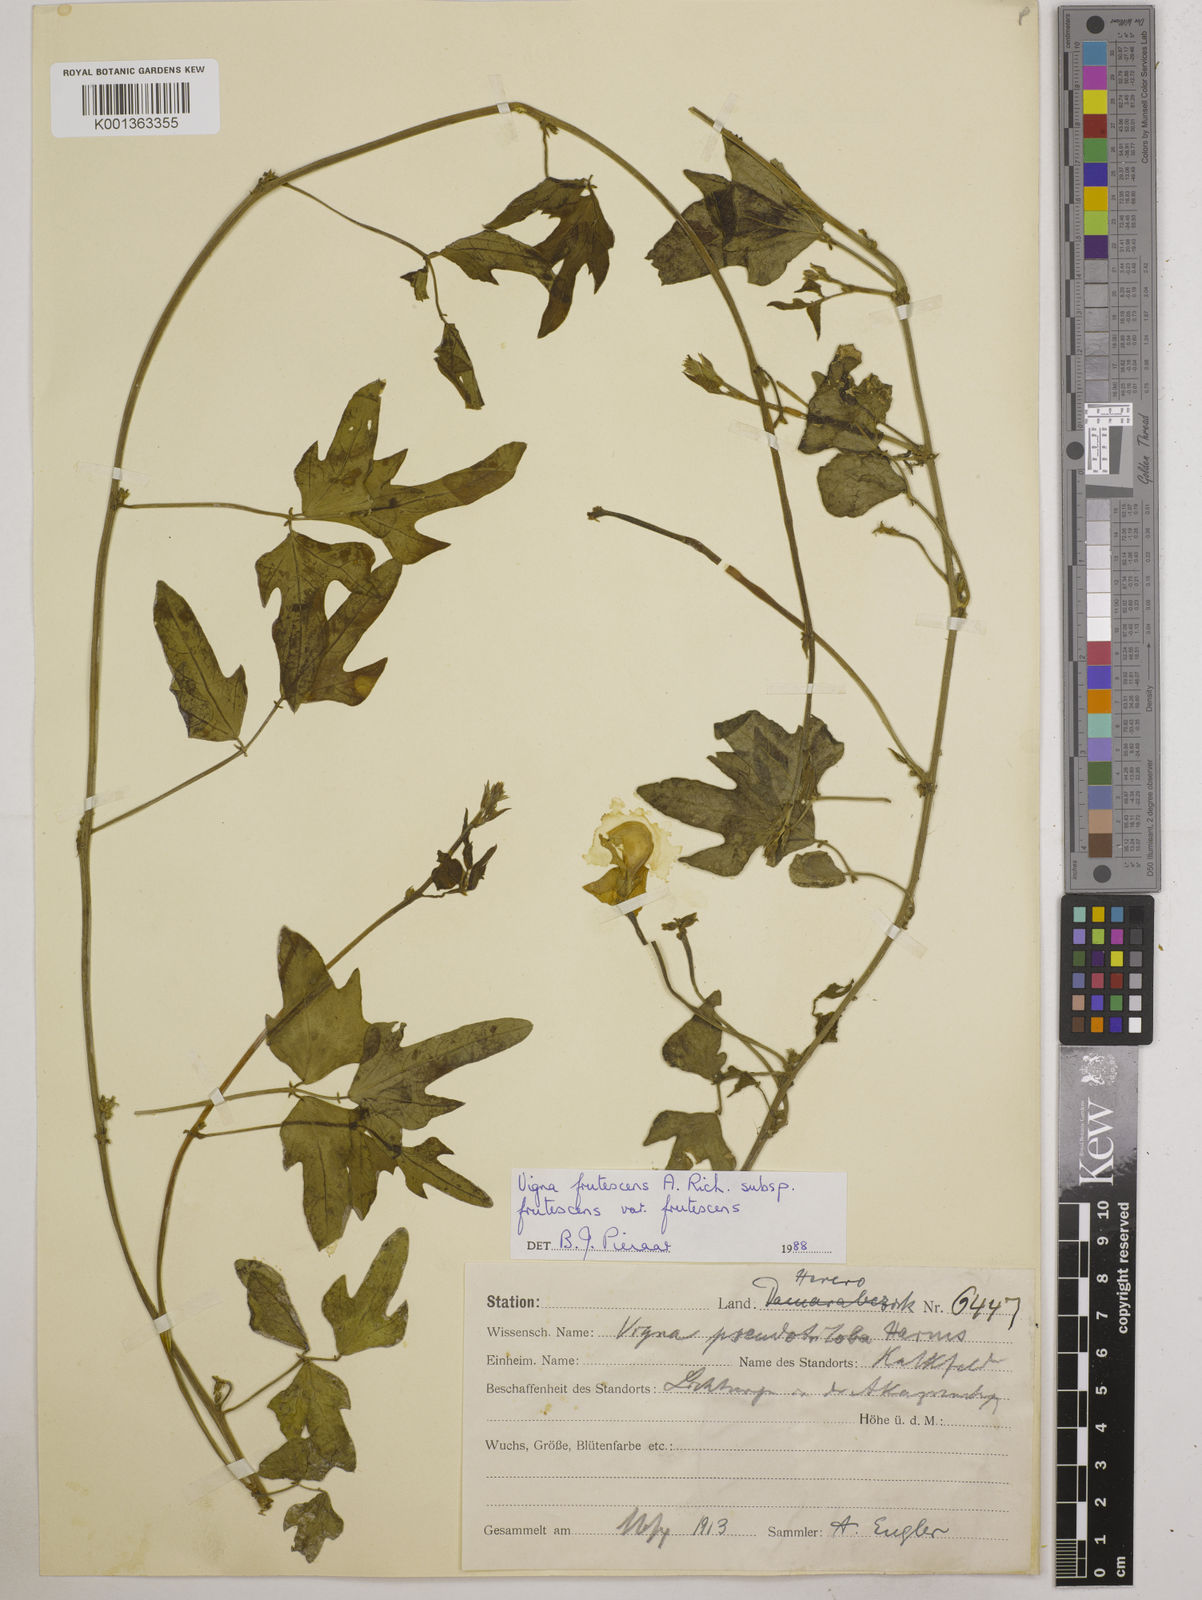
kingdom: Plantae
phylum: Tracheophyta
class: Magnoliopsida
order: Fabales
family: Fabaceae
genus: Vigna
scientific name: Vigna
